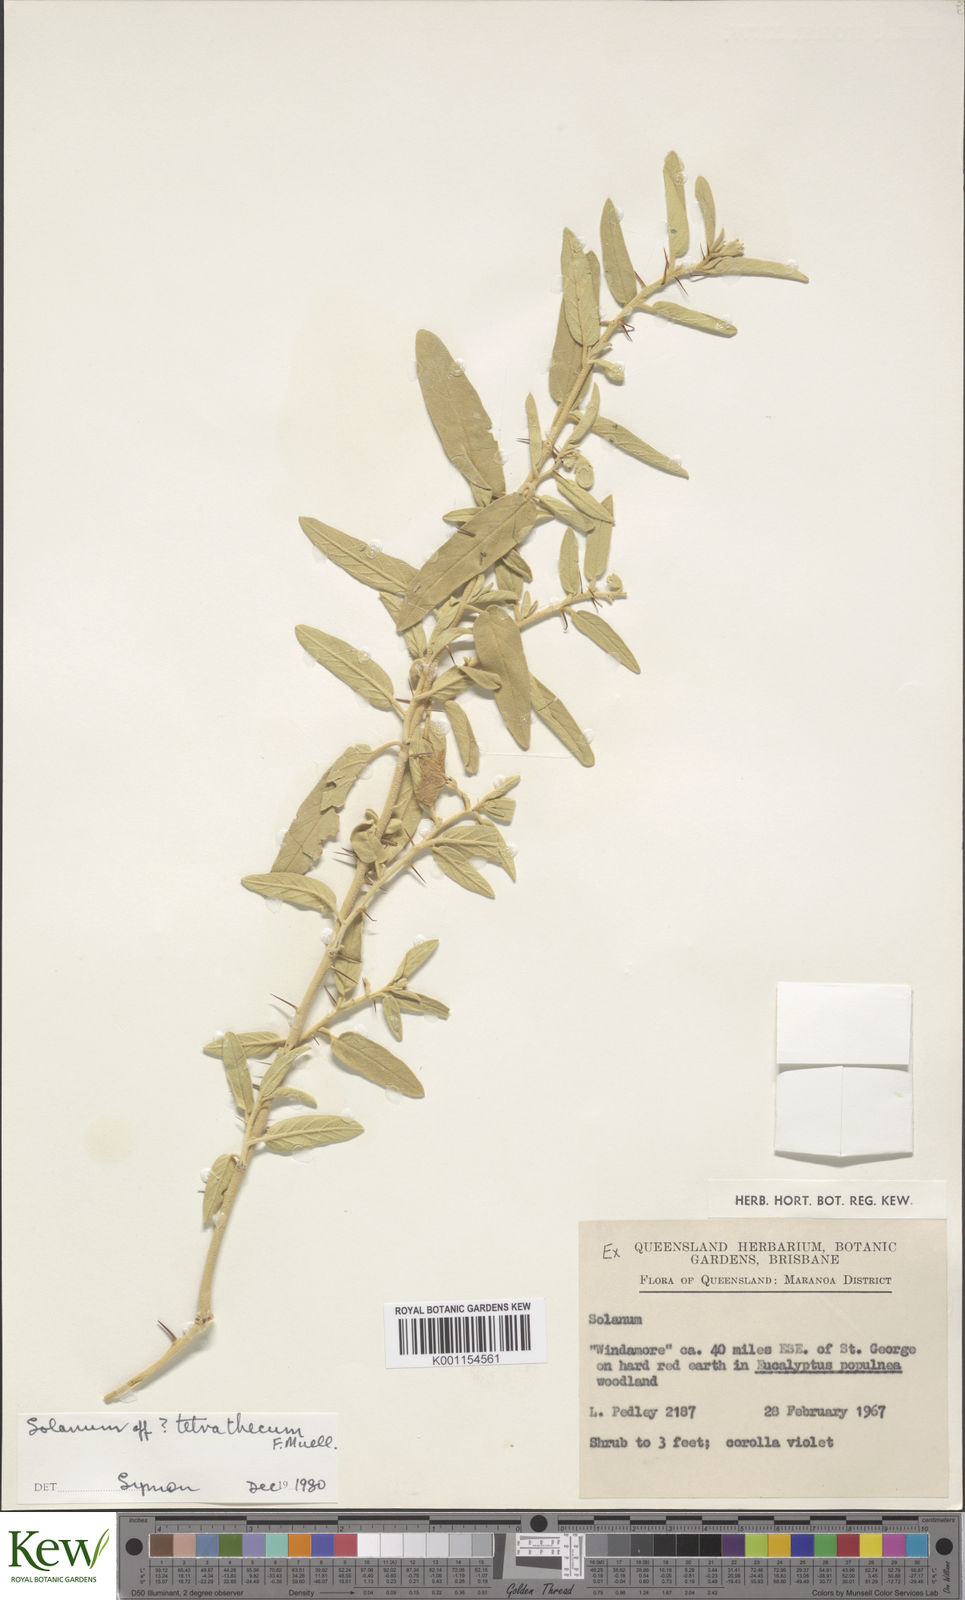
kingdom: Plantae
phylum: Tracheophyta
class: Magnoliopsida
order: Solanales
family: Solanaceae
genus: Solanum
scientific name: Solanum tetrathecum
